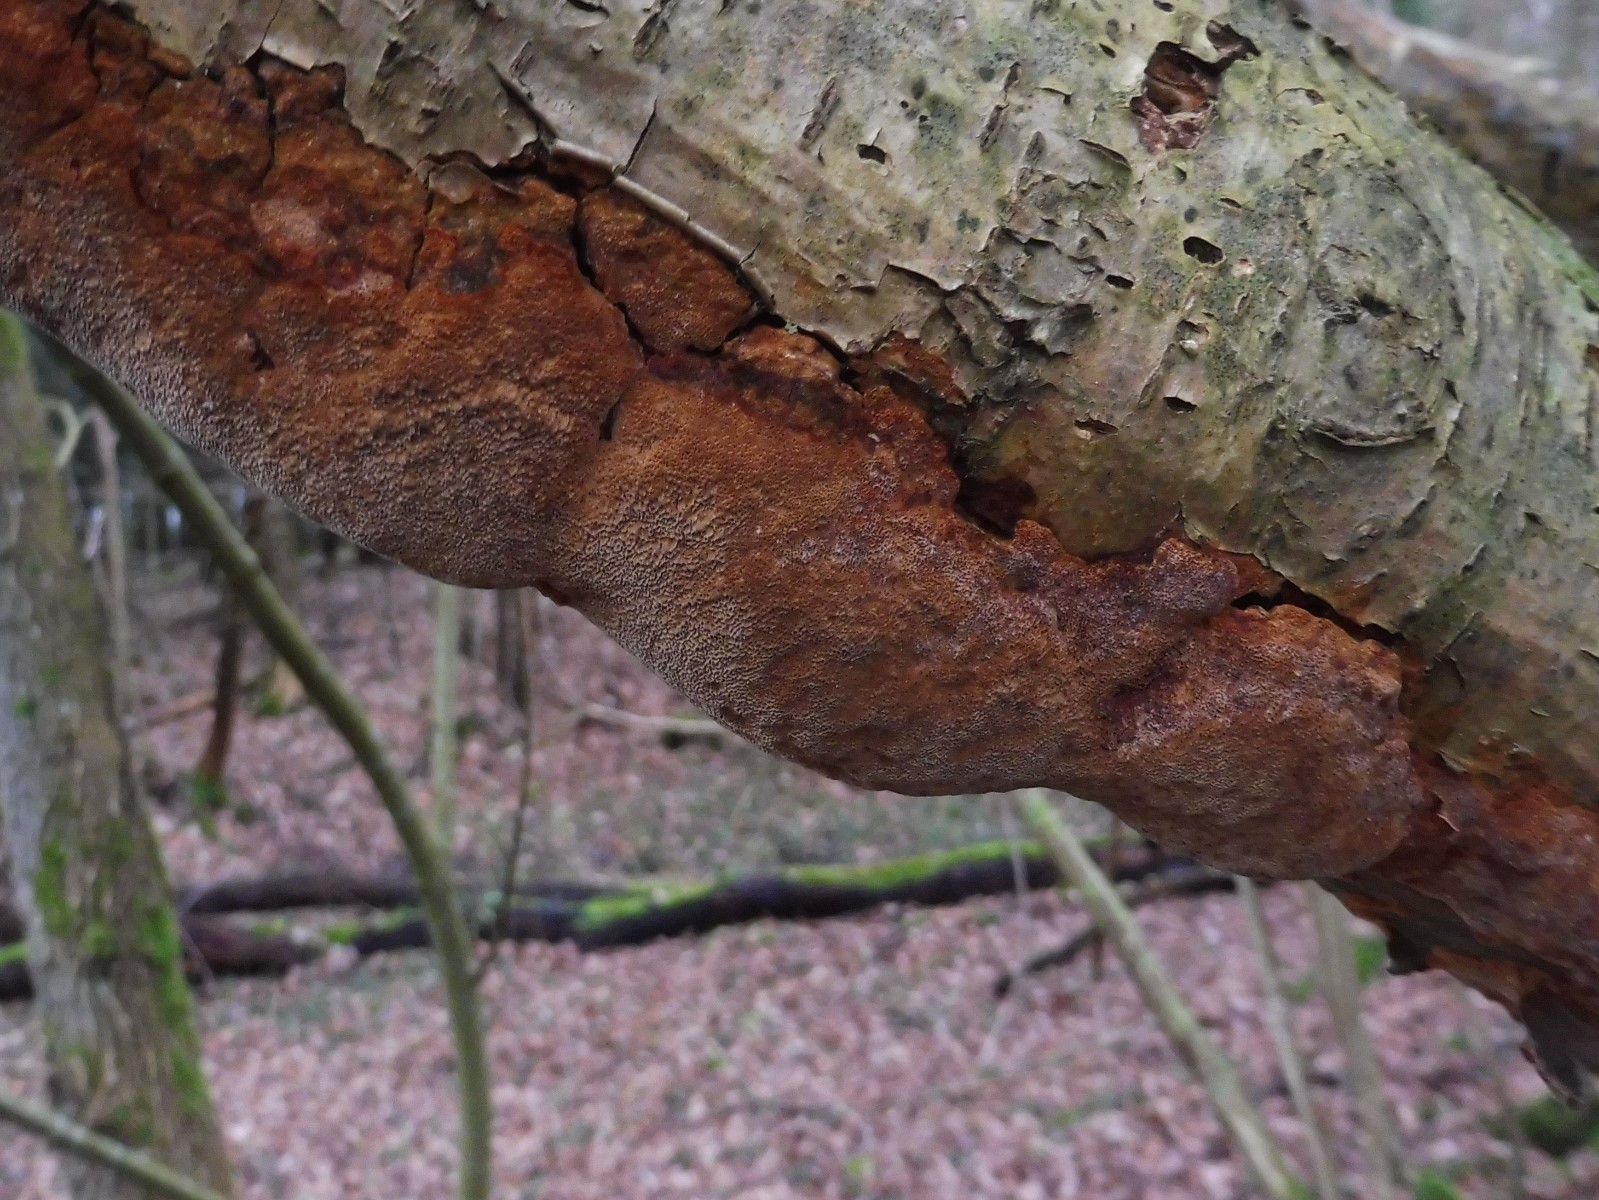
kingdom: Fungi
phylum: Basidiomycota
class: Agaricomycetes
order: Hymenochaetales
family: Hymenochaetaceae
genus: Fuscoporia
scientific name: Fuscoporia ferrea
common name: skorpe-ildporesvamp
